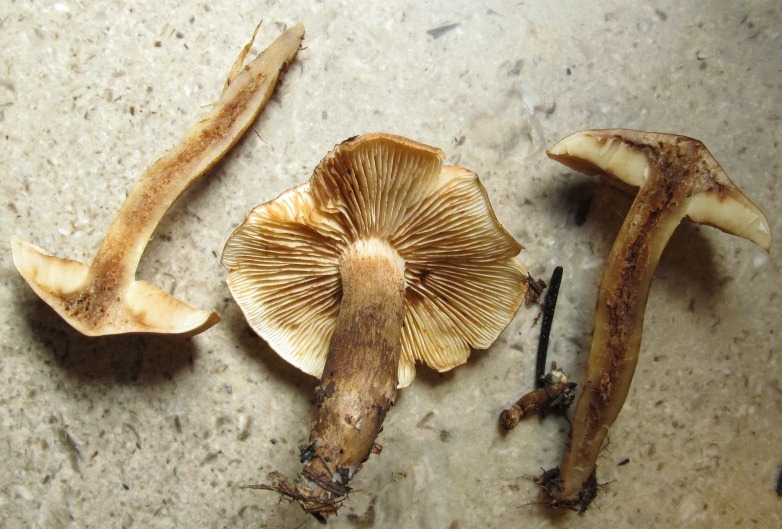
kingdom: Fungi
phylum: Basidiomycota
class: Agaricomycetes
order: Agaricales
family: Tricholomataceae
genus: Tricholoma
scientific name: Tricholoma fulvum
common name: birke-ridderhat
